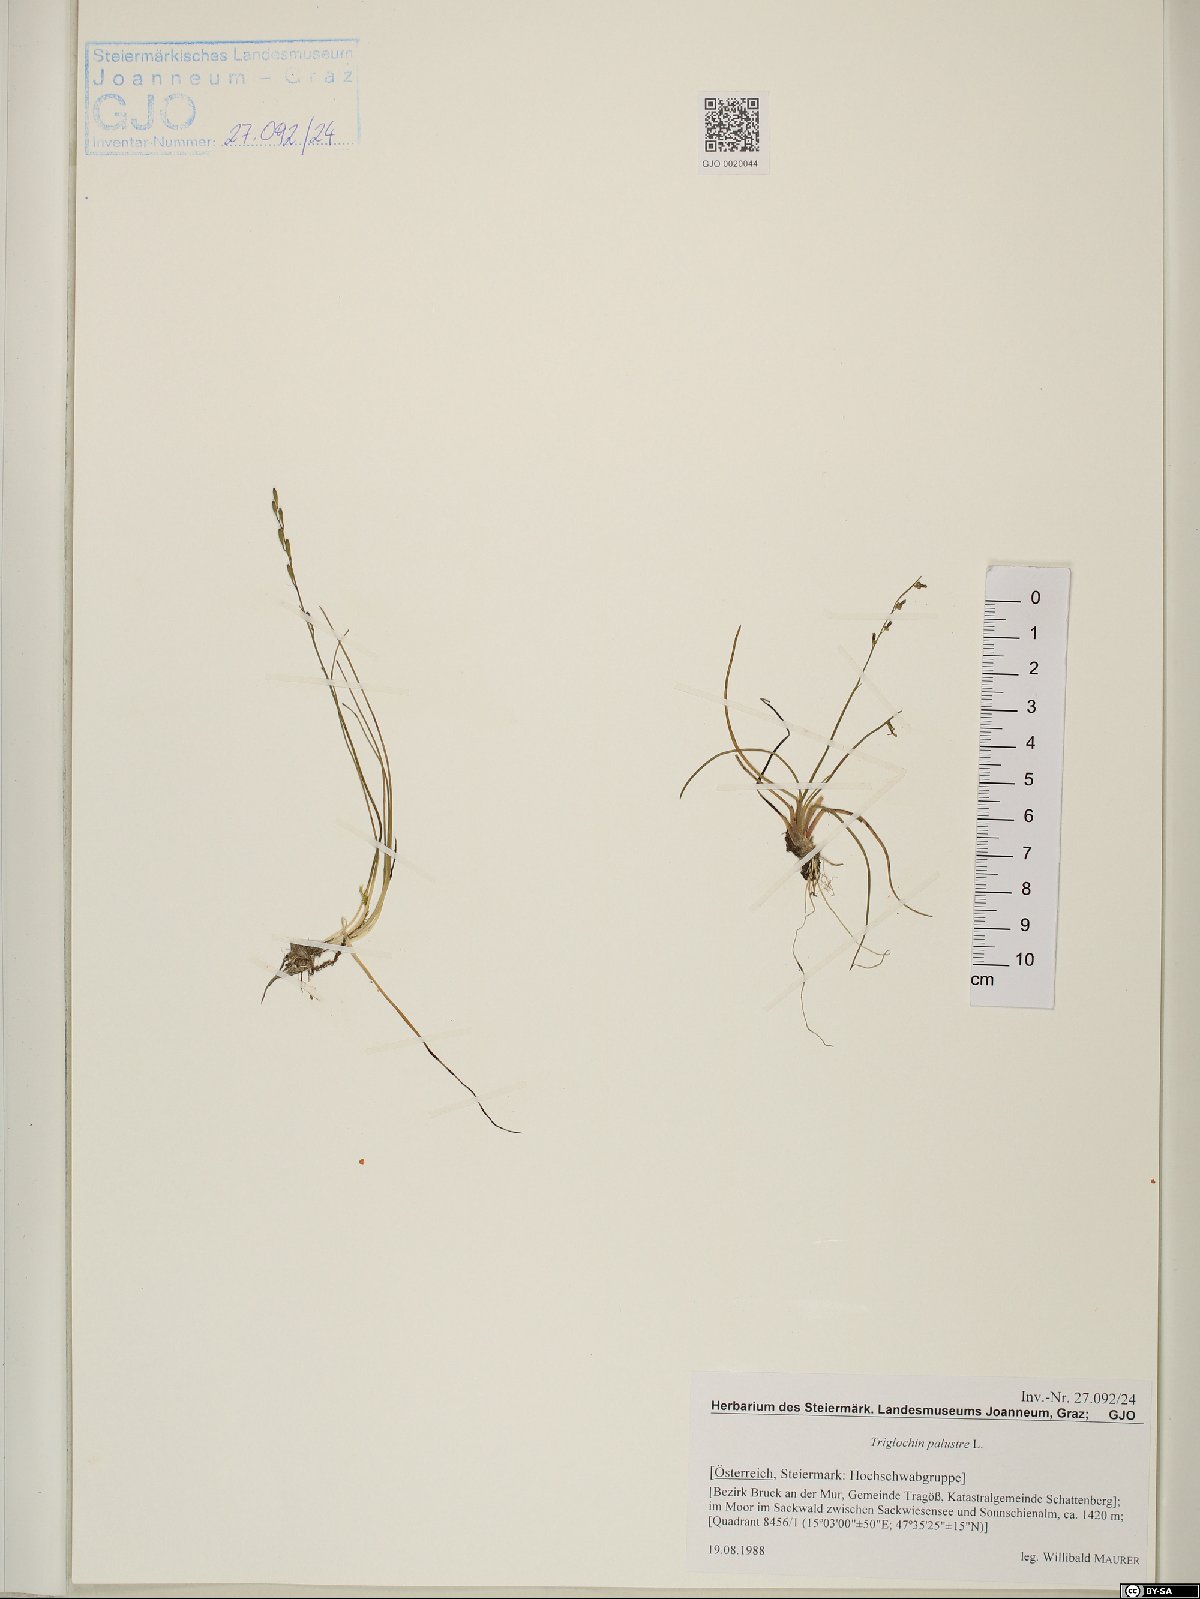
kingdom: Plantae
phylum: Tracheophyta
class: Liliopsida
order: Alismatales
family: Juncaginaceae
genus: Triglochin
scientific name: Triglochin palustris
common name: Marsh arrowgrass
